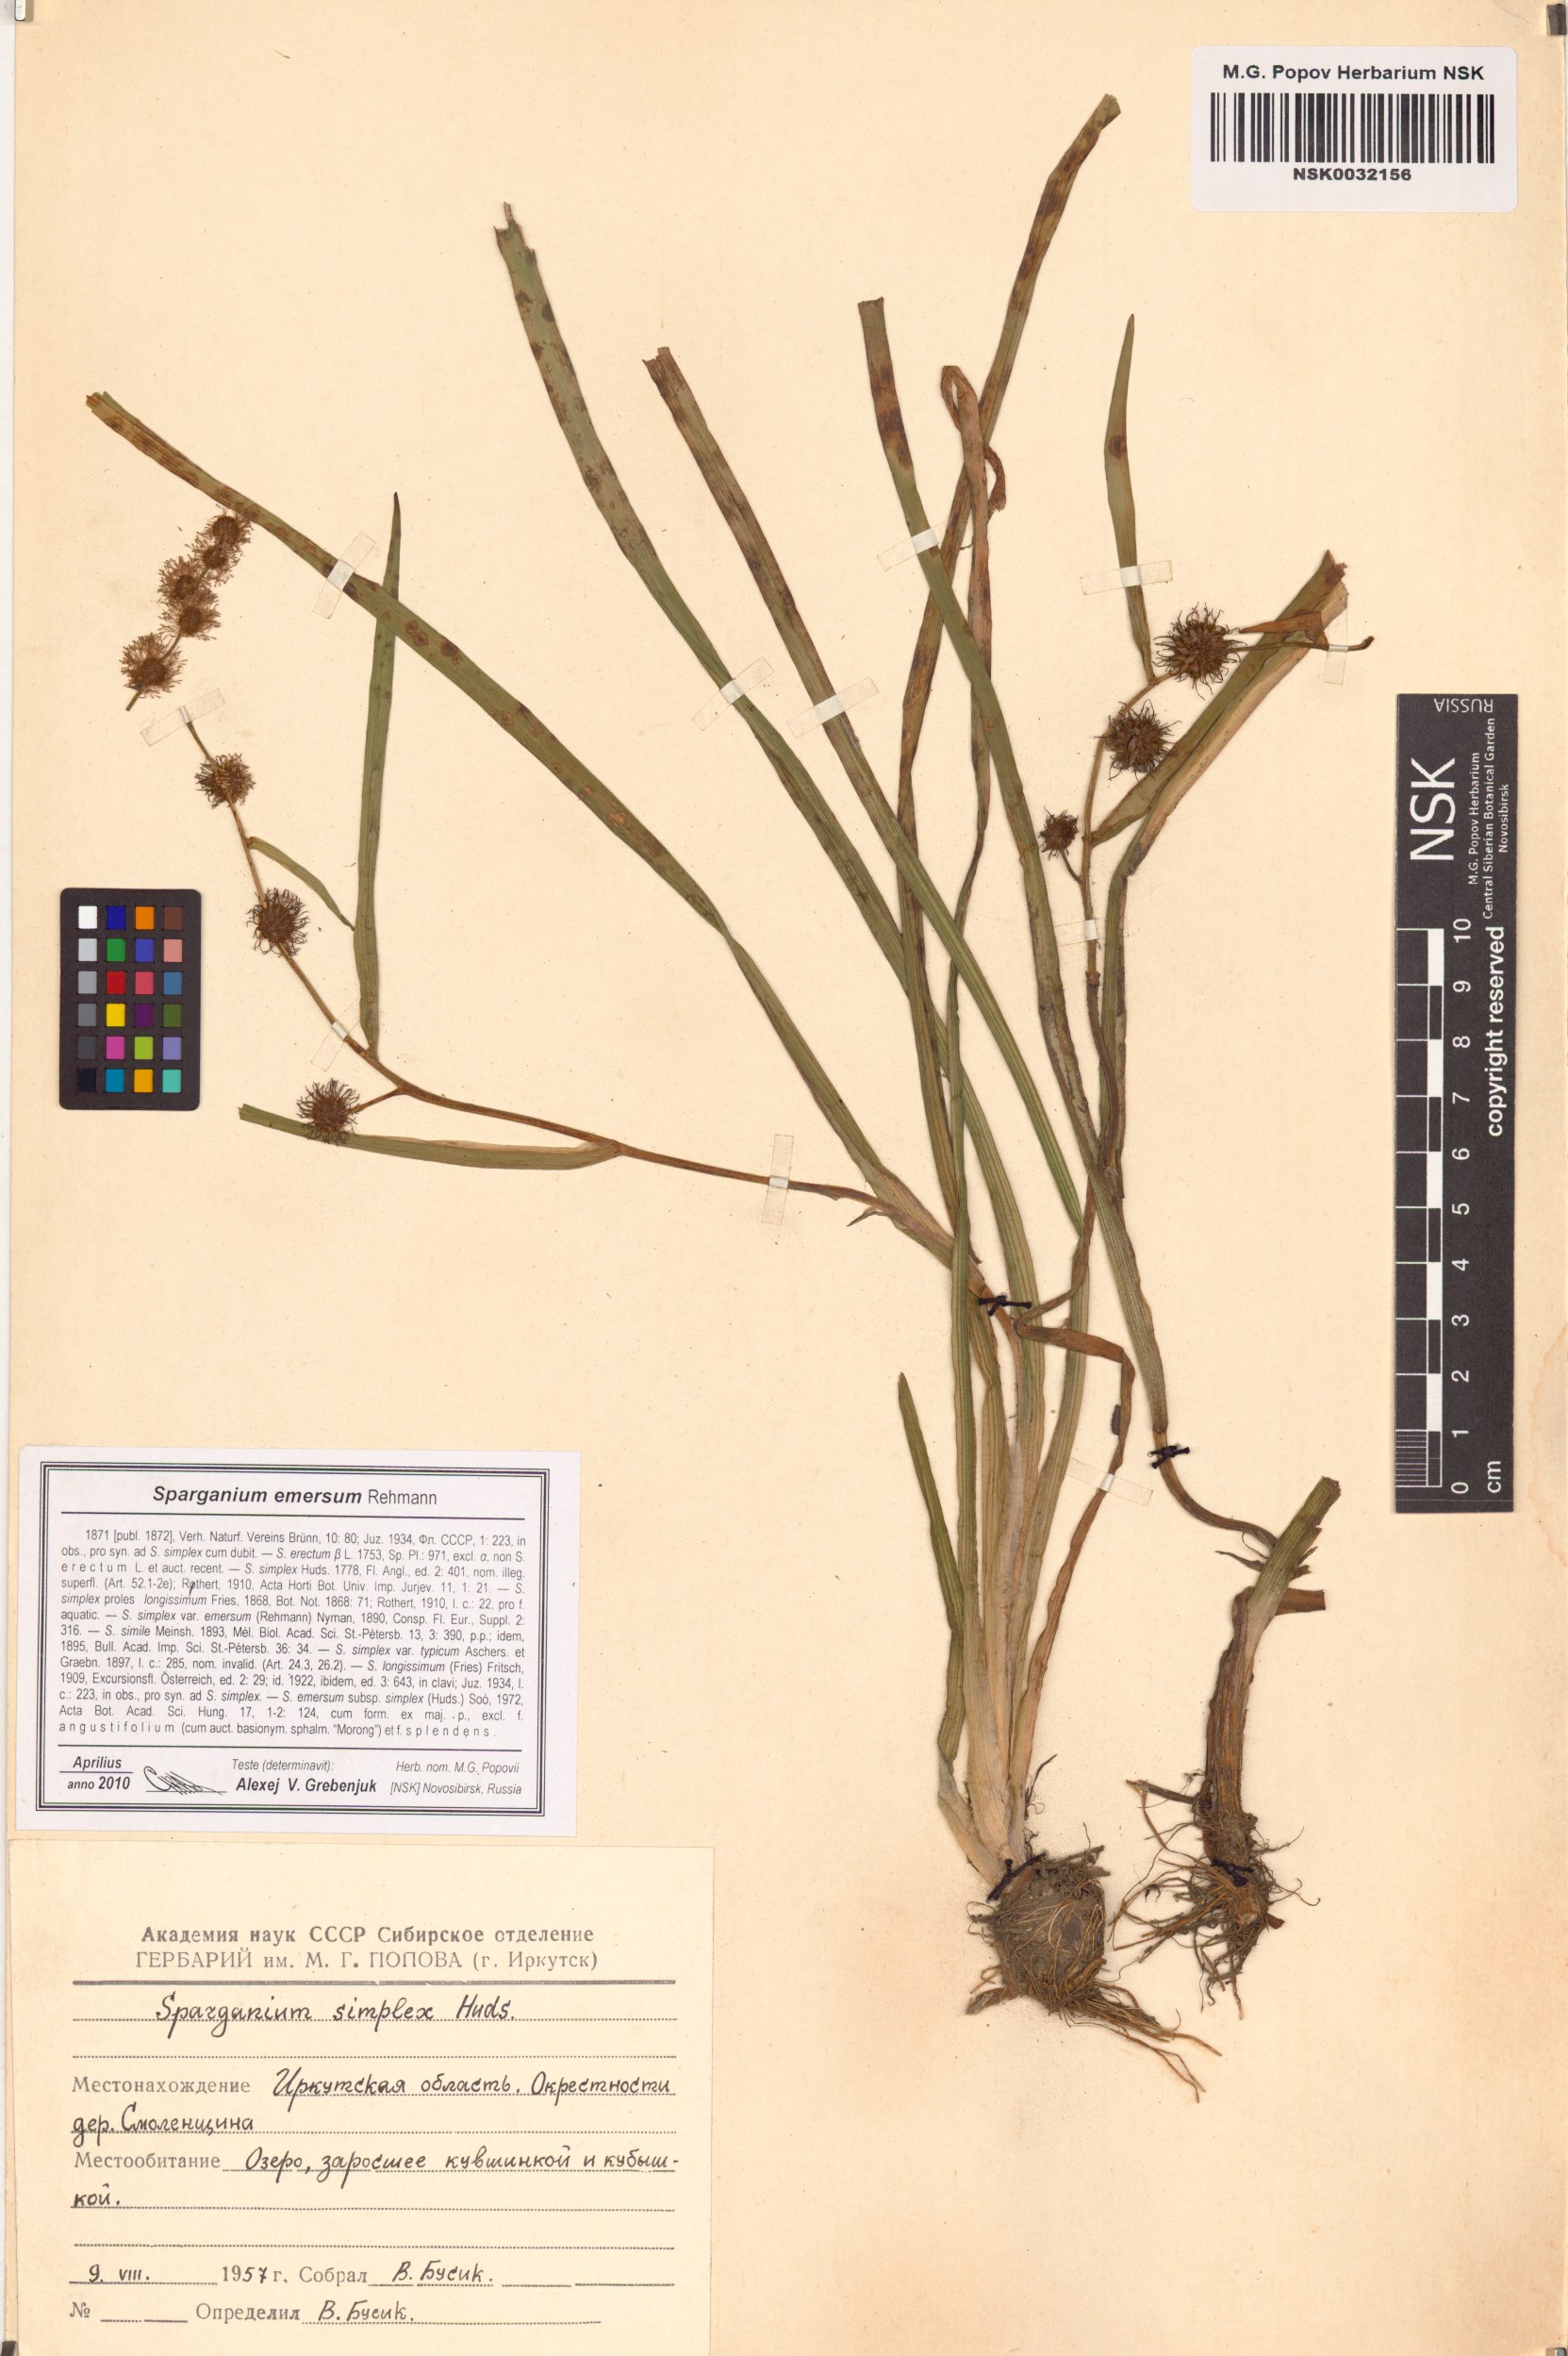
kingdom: Plantae
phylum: Tracheophyta
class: Liliopsida
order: Poales
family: Typhaceae
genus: Sparganium
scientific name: Sparganium emersum
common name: Unbranched bur-reed
